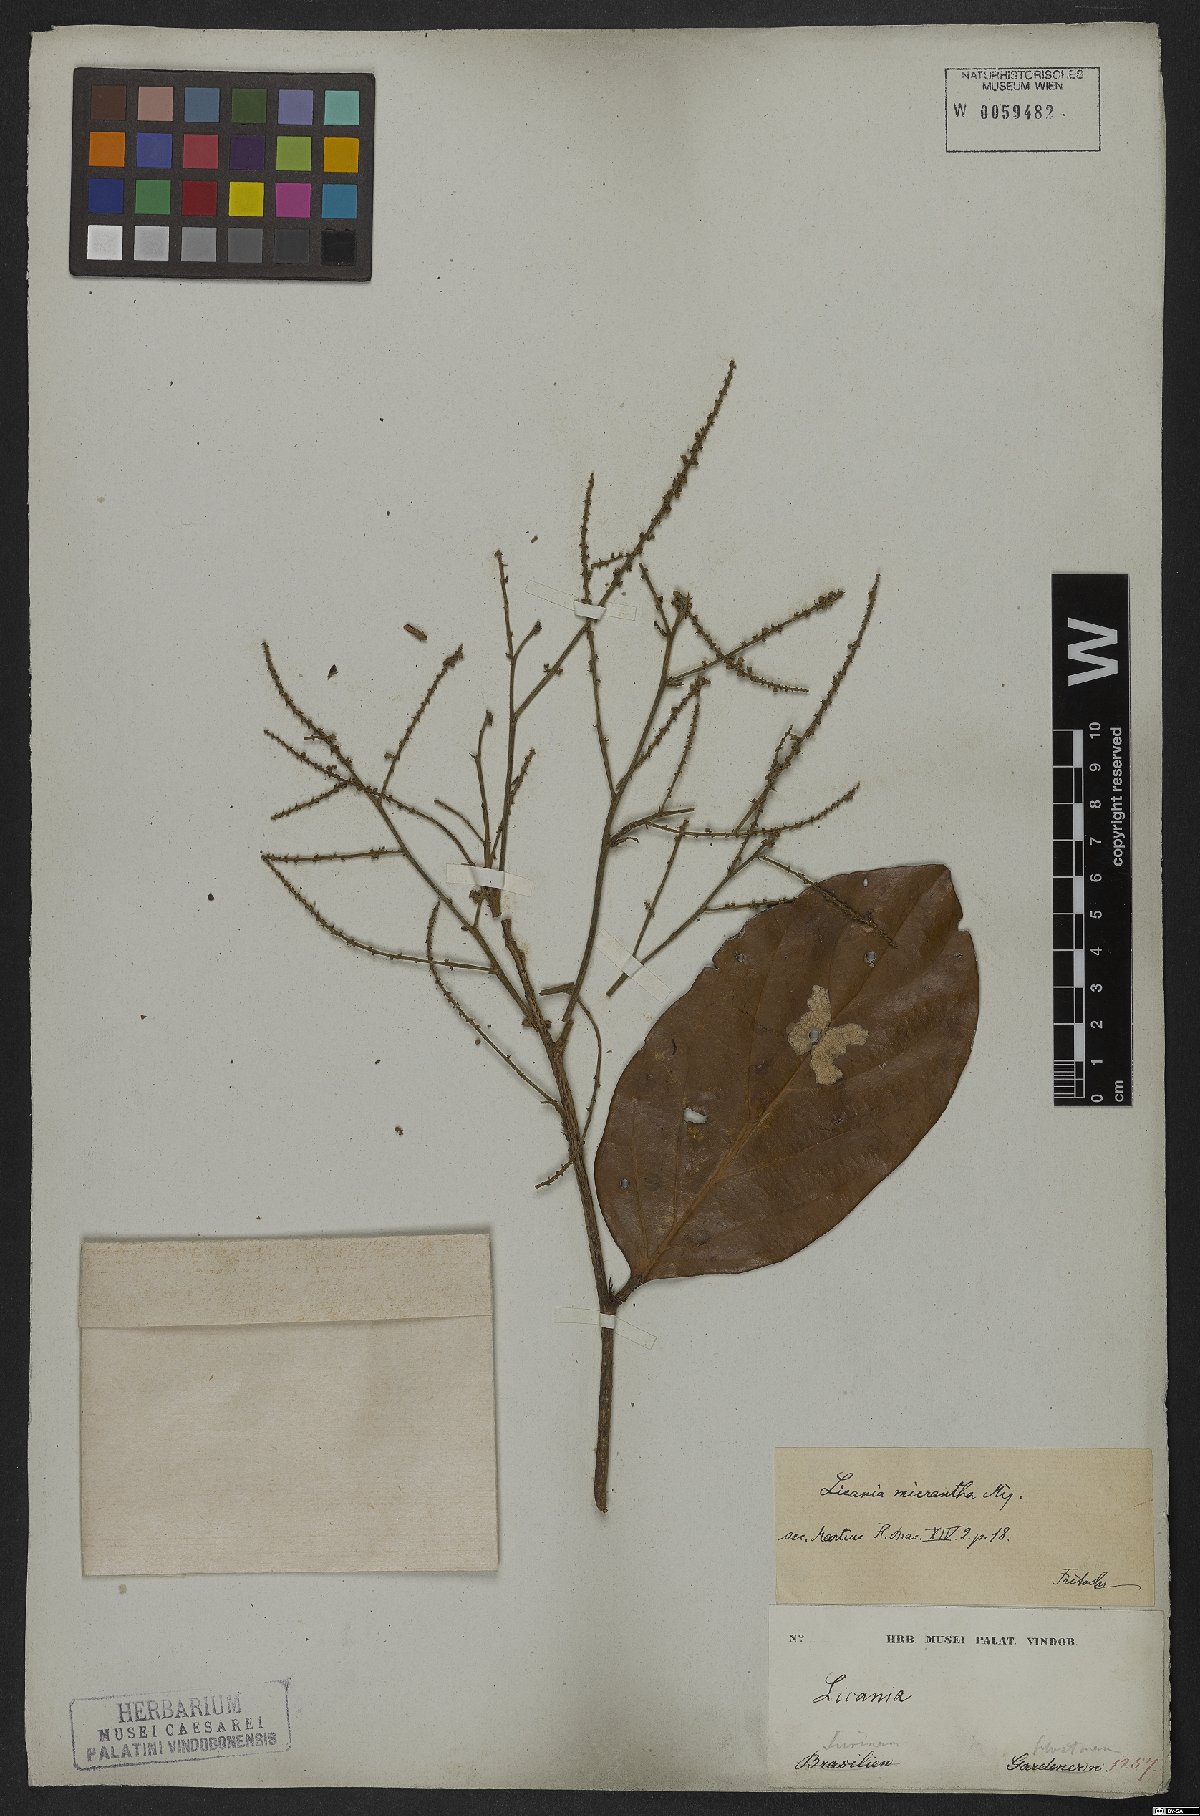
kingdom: Plantae
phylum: Tracheophyta
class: Magnoliopsida
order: Malpighiales
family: Chrysobalanaceae
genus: Licania
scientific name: Licania micrantha
